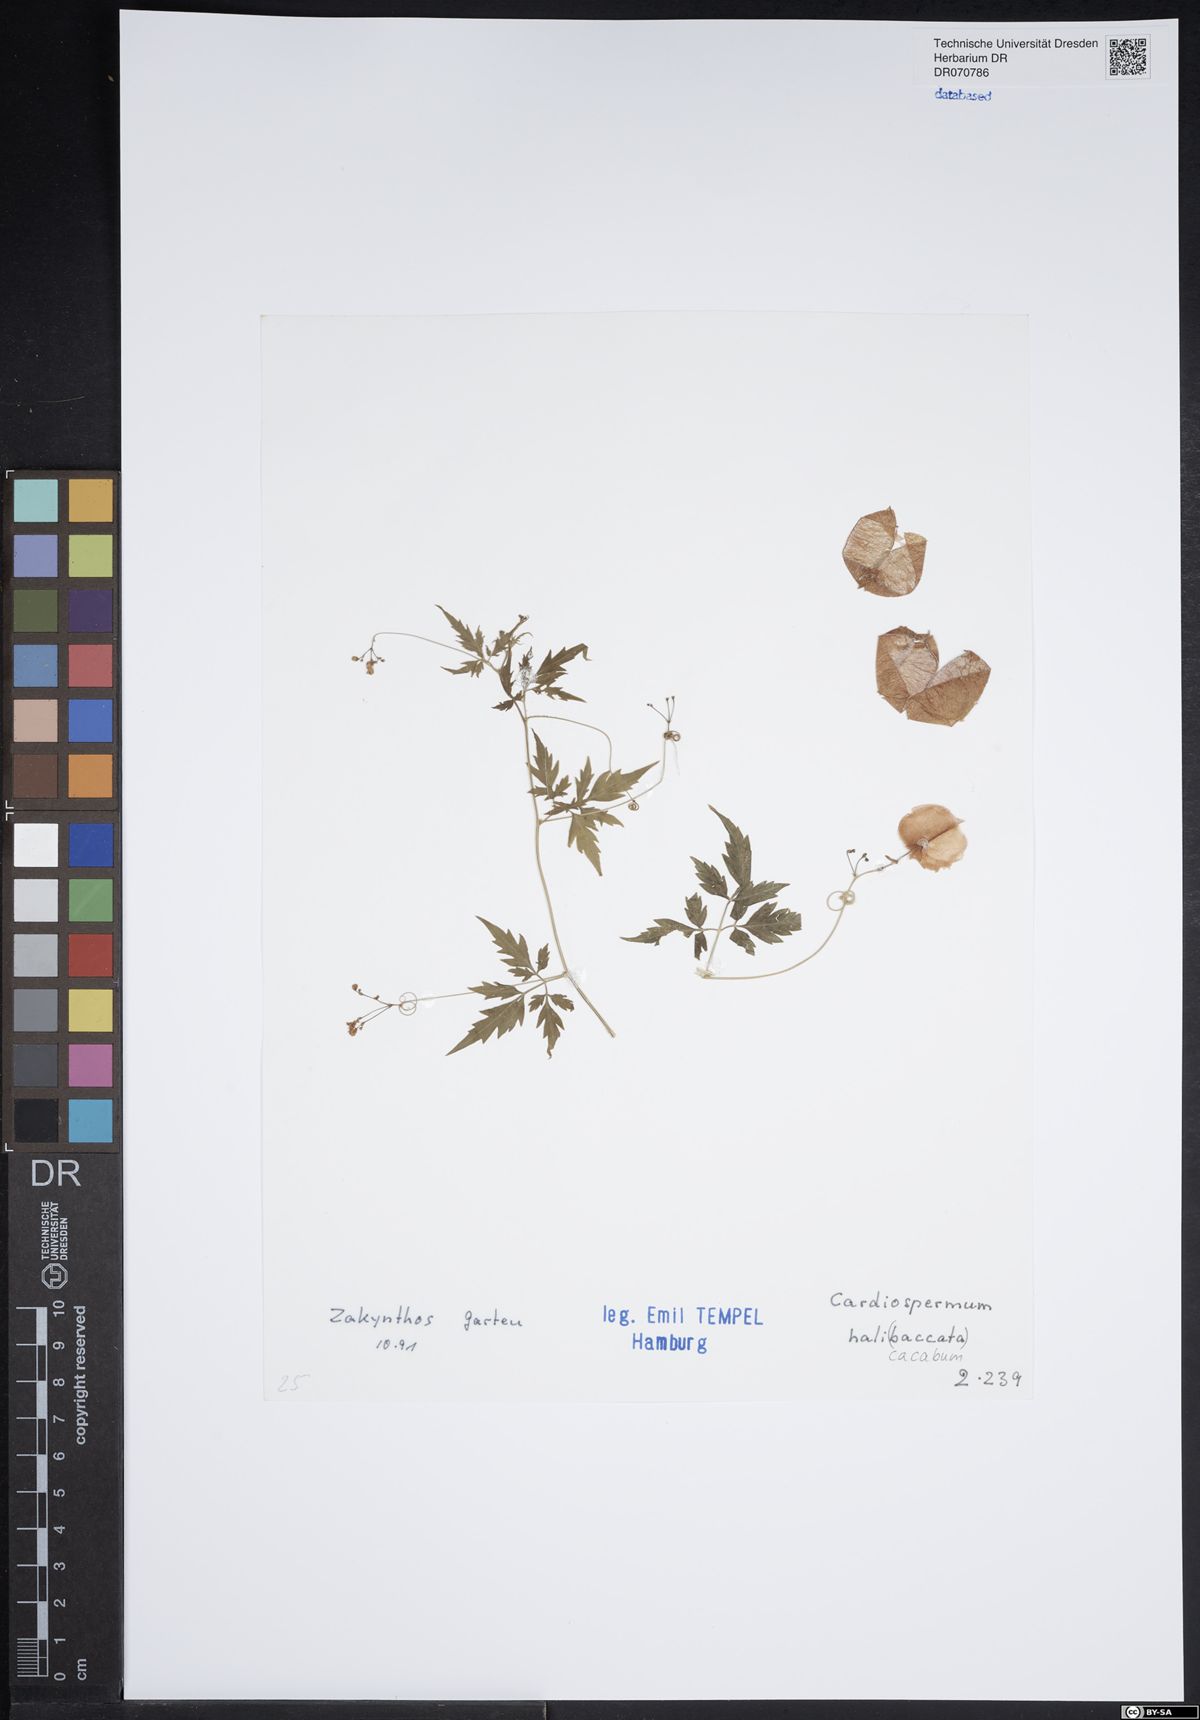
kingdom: Plantae
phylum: Tracheophyta
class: Magnoliopsida
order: Sapindales
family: Sapindaceae
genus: Cardiospermum
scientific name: Cardiospermum halicacabum
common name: Balloon vine
